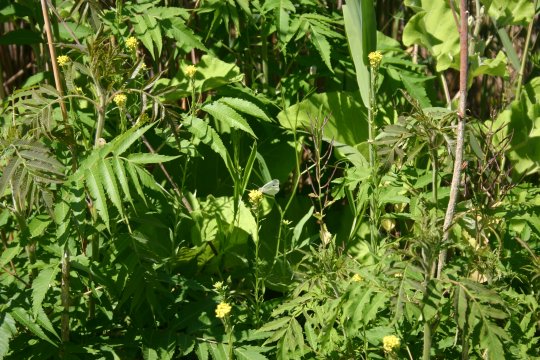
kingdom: Animalia
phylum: Arthropoda
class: Insecta
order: Lepidoptera
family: Pieridae
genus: Pieris
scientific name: Pieris rapae
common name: Cabbage White
